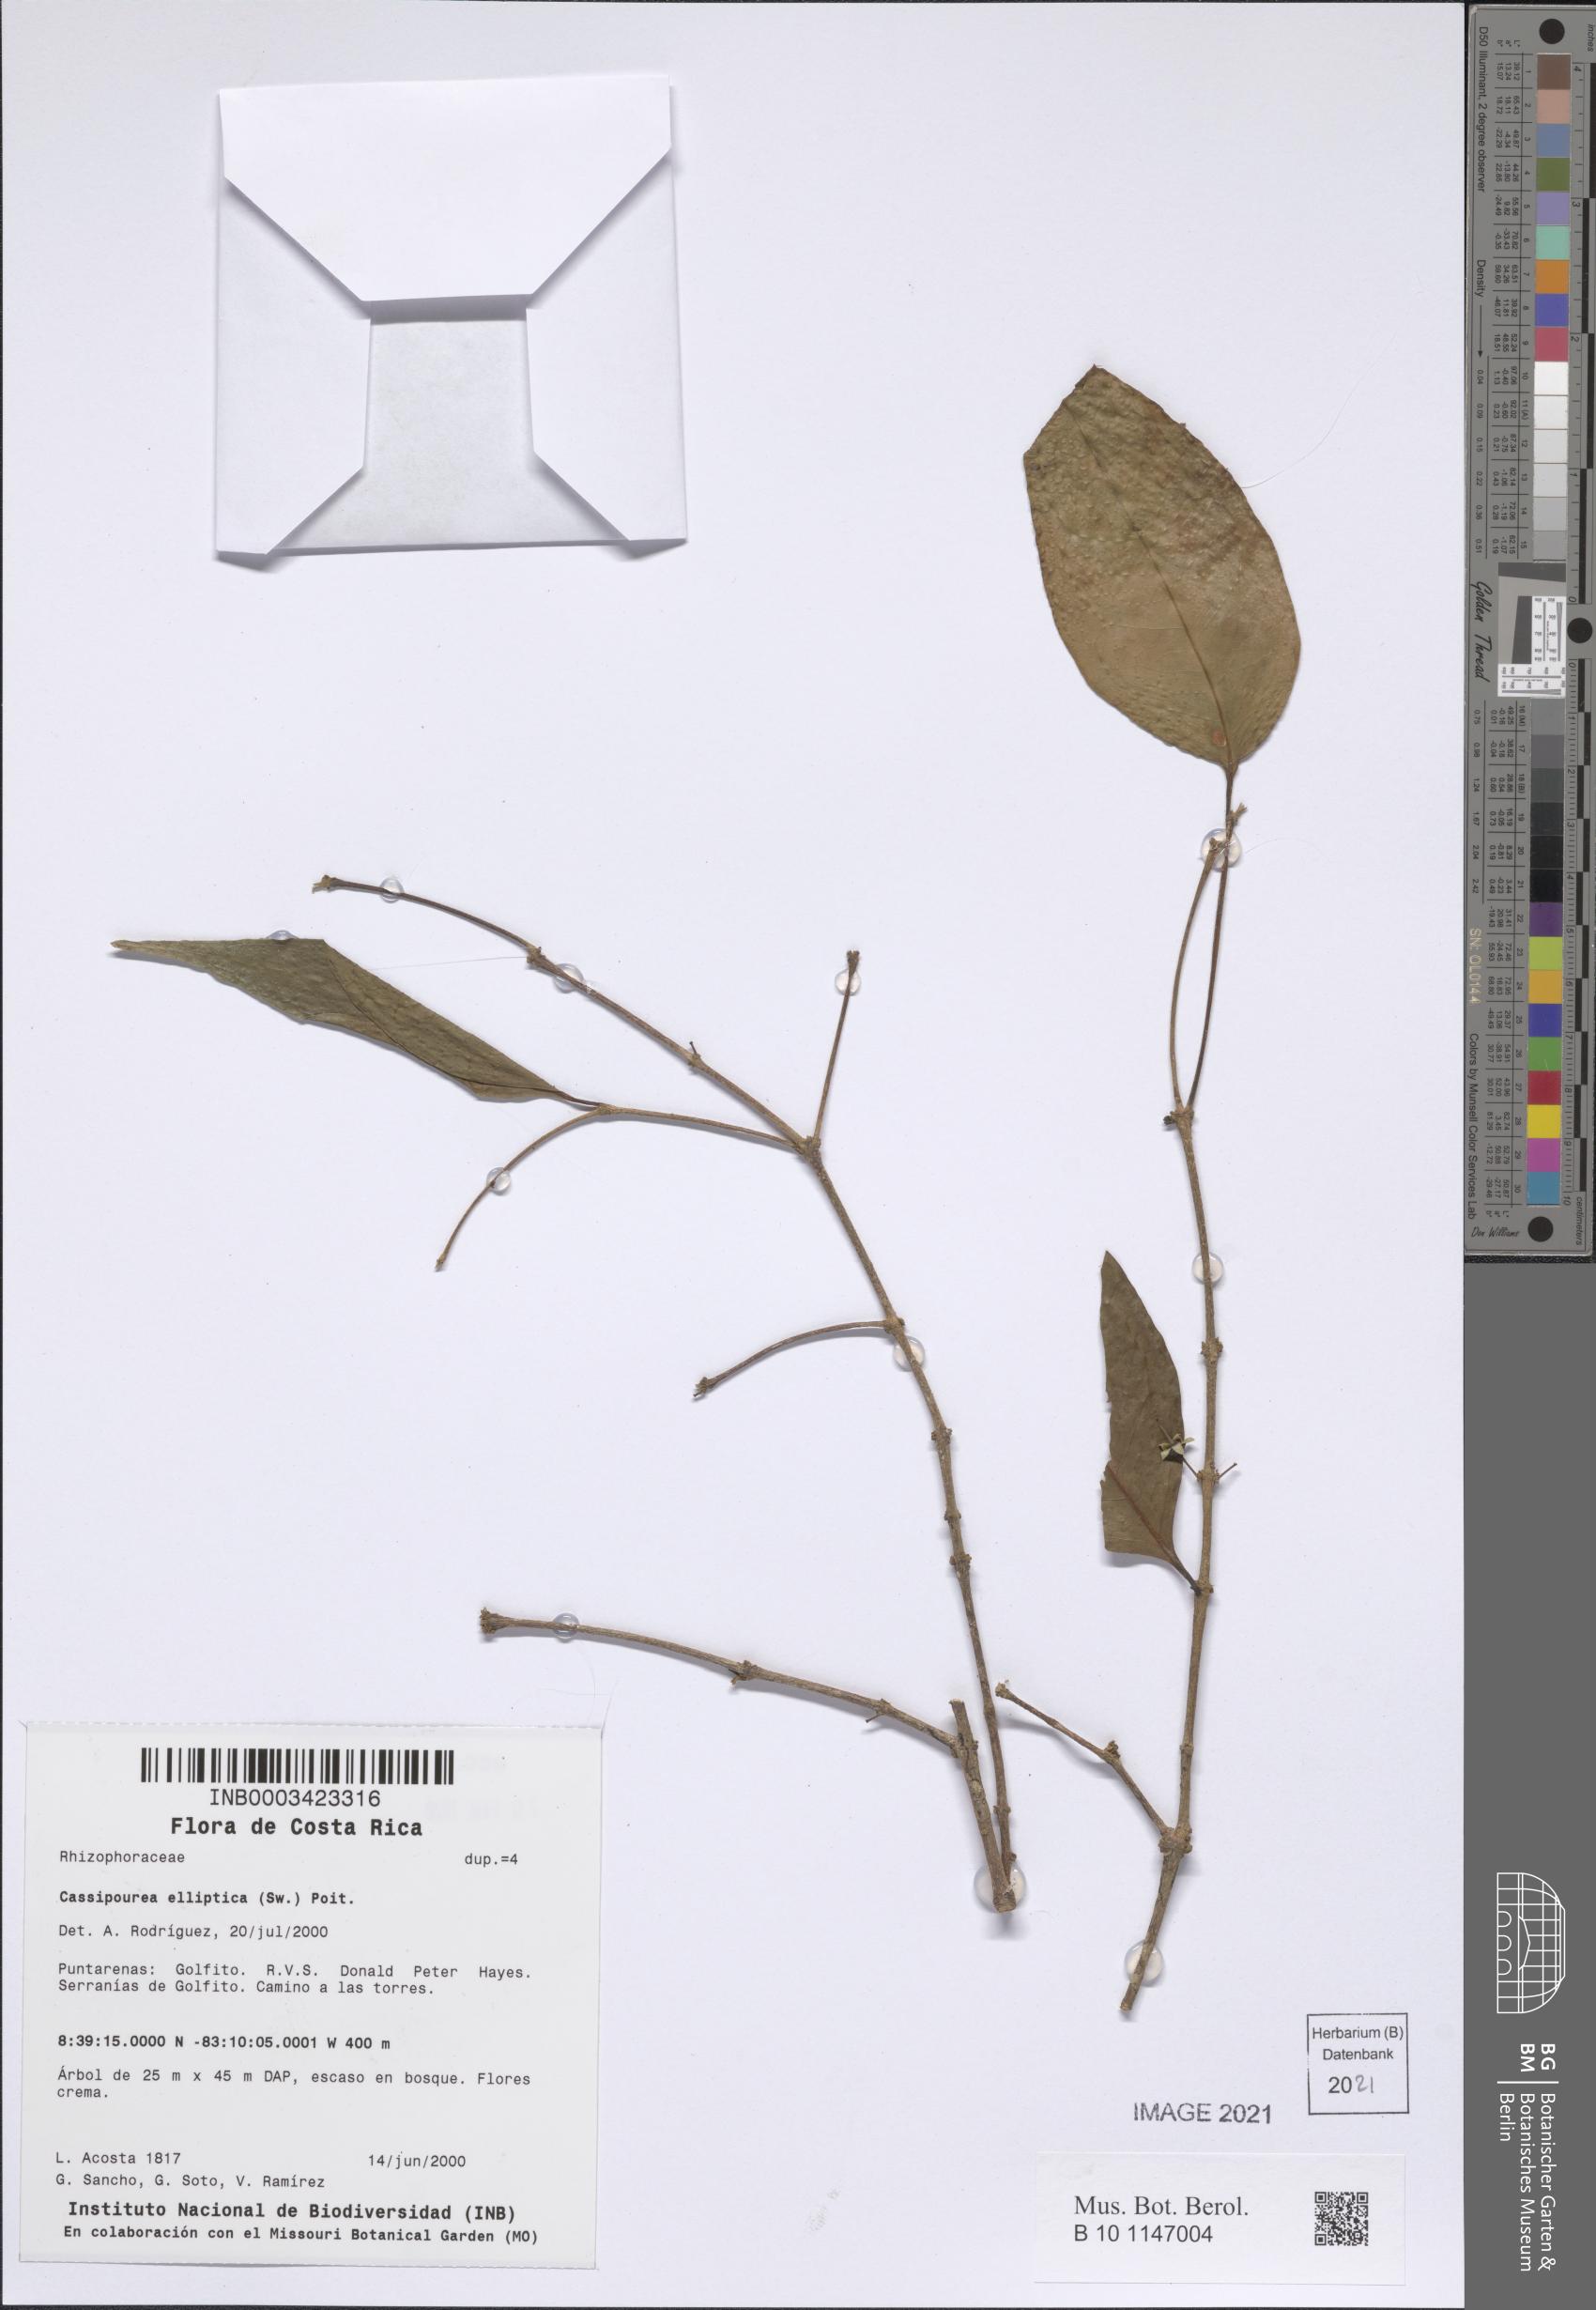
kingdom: Plantae
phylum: Tracheophyta
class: Magnoliopsida
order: Malpighiales
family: Rhizophoraceae
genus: Cassipourea
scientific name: Cassipourea elliptica
